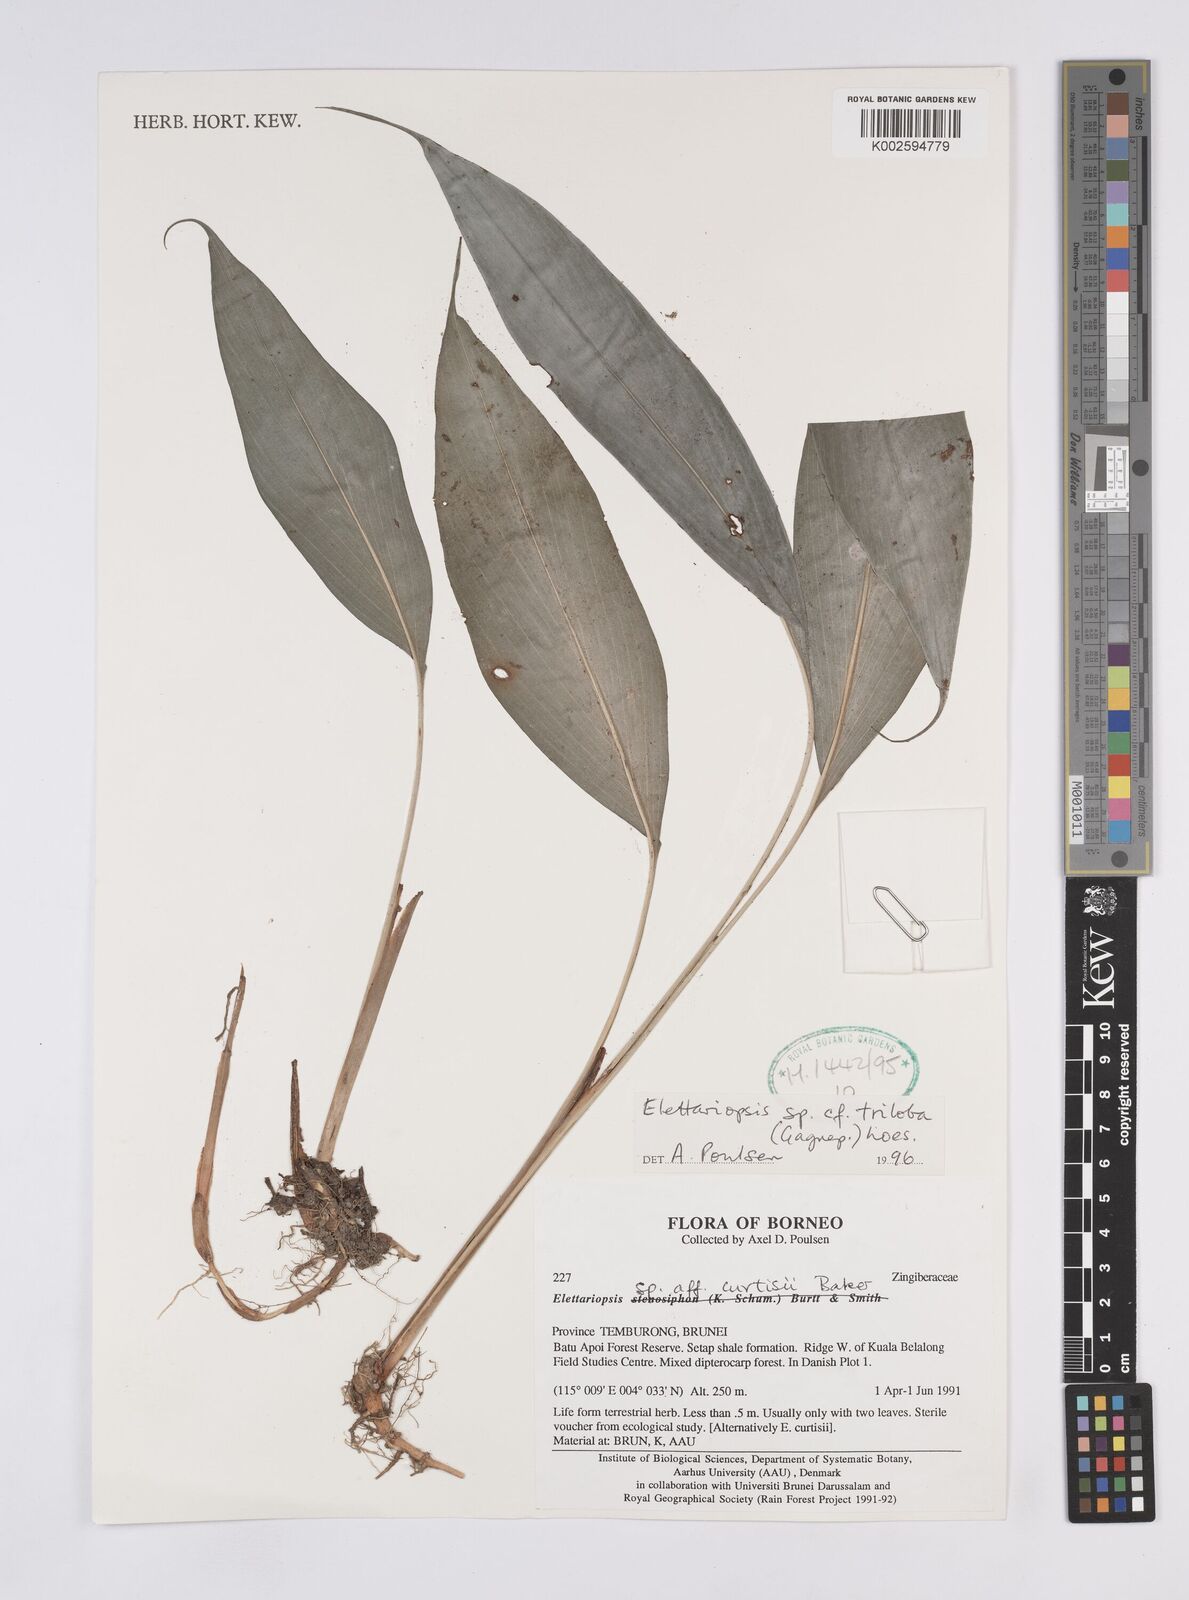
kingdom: Plantae
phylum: Tracheophyta
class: Liliopsida
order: Zingiberales
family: Zingiberaceae
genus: Amomum
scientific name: Amomum
